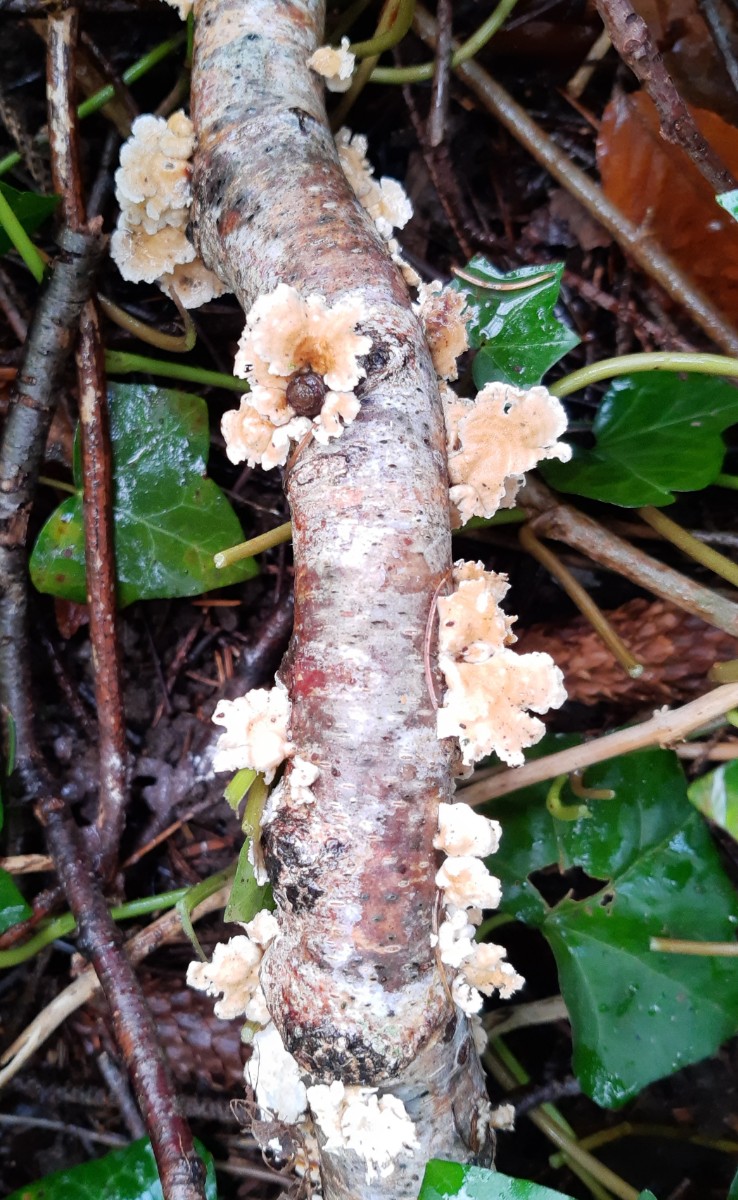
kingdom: Fungi
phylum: Basidiomycota
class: Agaricomycetes
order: Amylocorticiales
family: Amylocorticiaceae
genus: Plicaturopsis
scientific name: Plicaturopsis crispa
